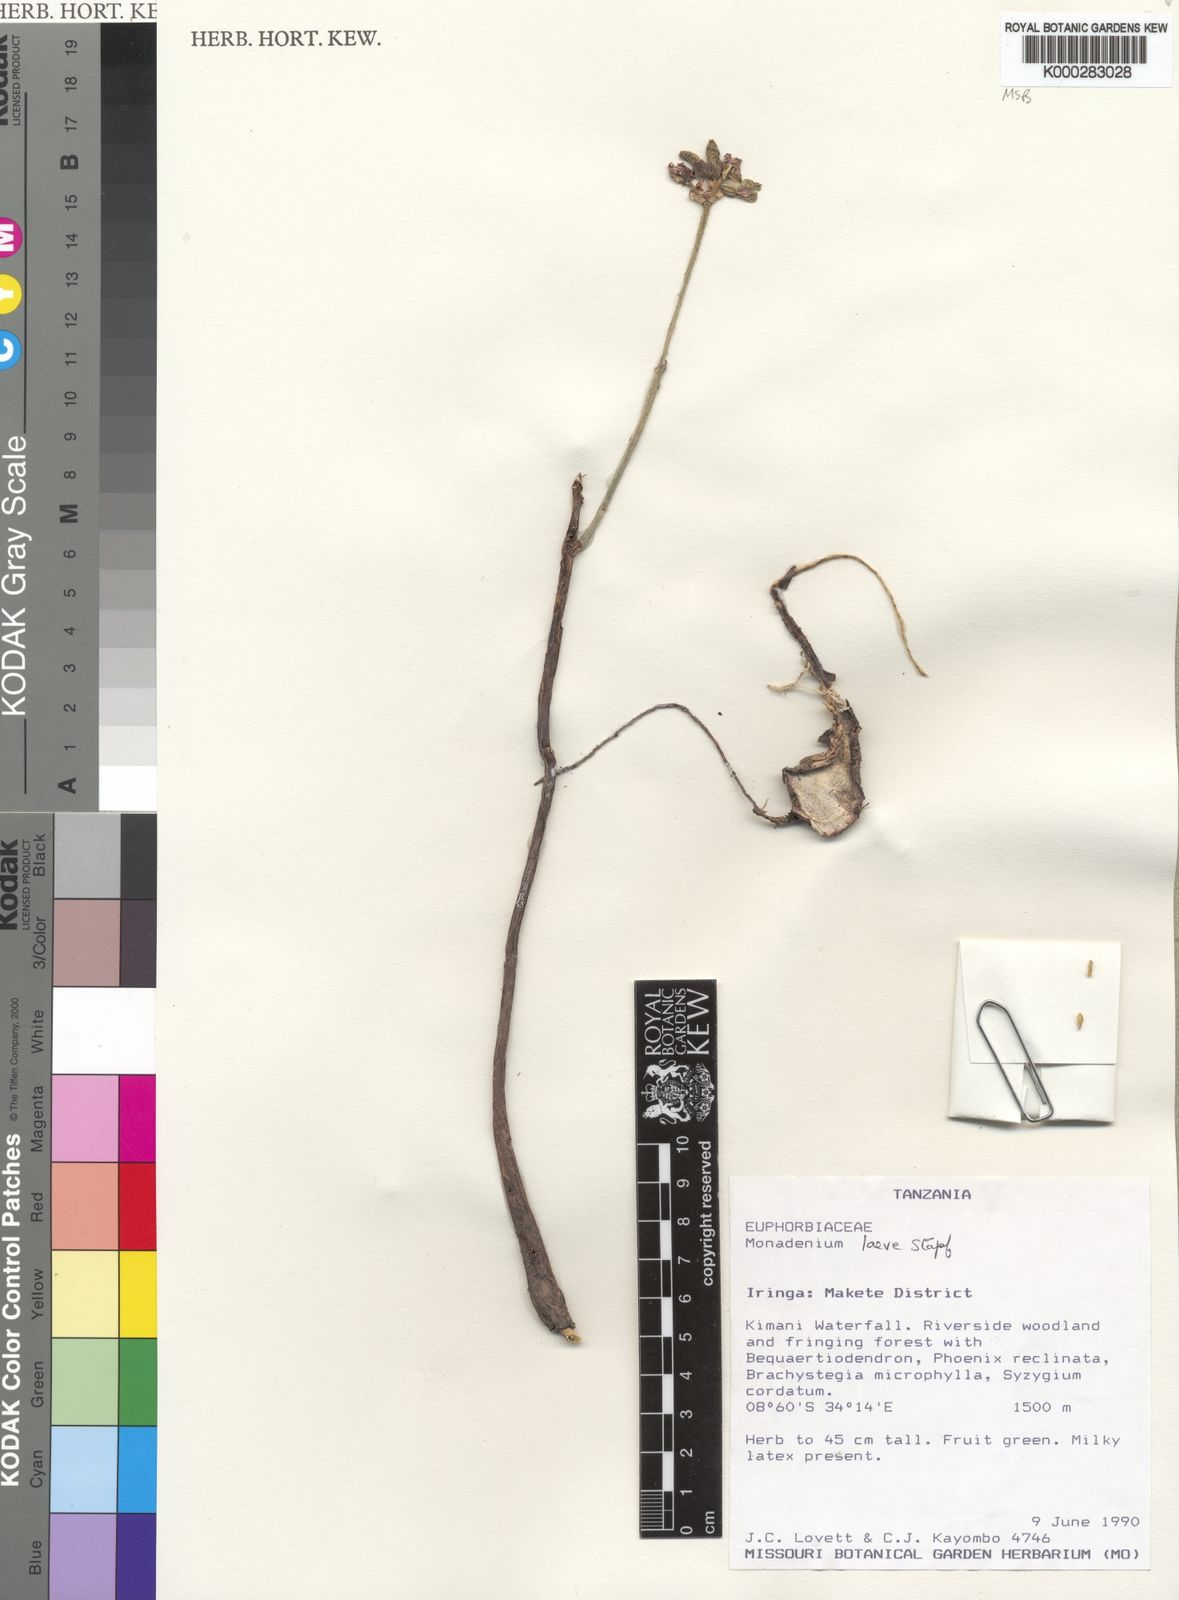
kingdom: Plantae
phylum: Tracheophyta
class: Magnoliopsida
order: Malpighiales
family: Euphorbiaceae
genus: Euphorbia
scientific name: Euphorbia pseudolaevis
